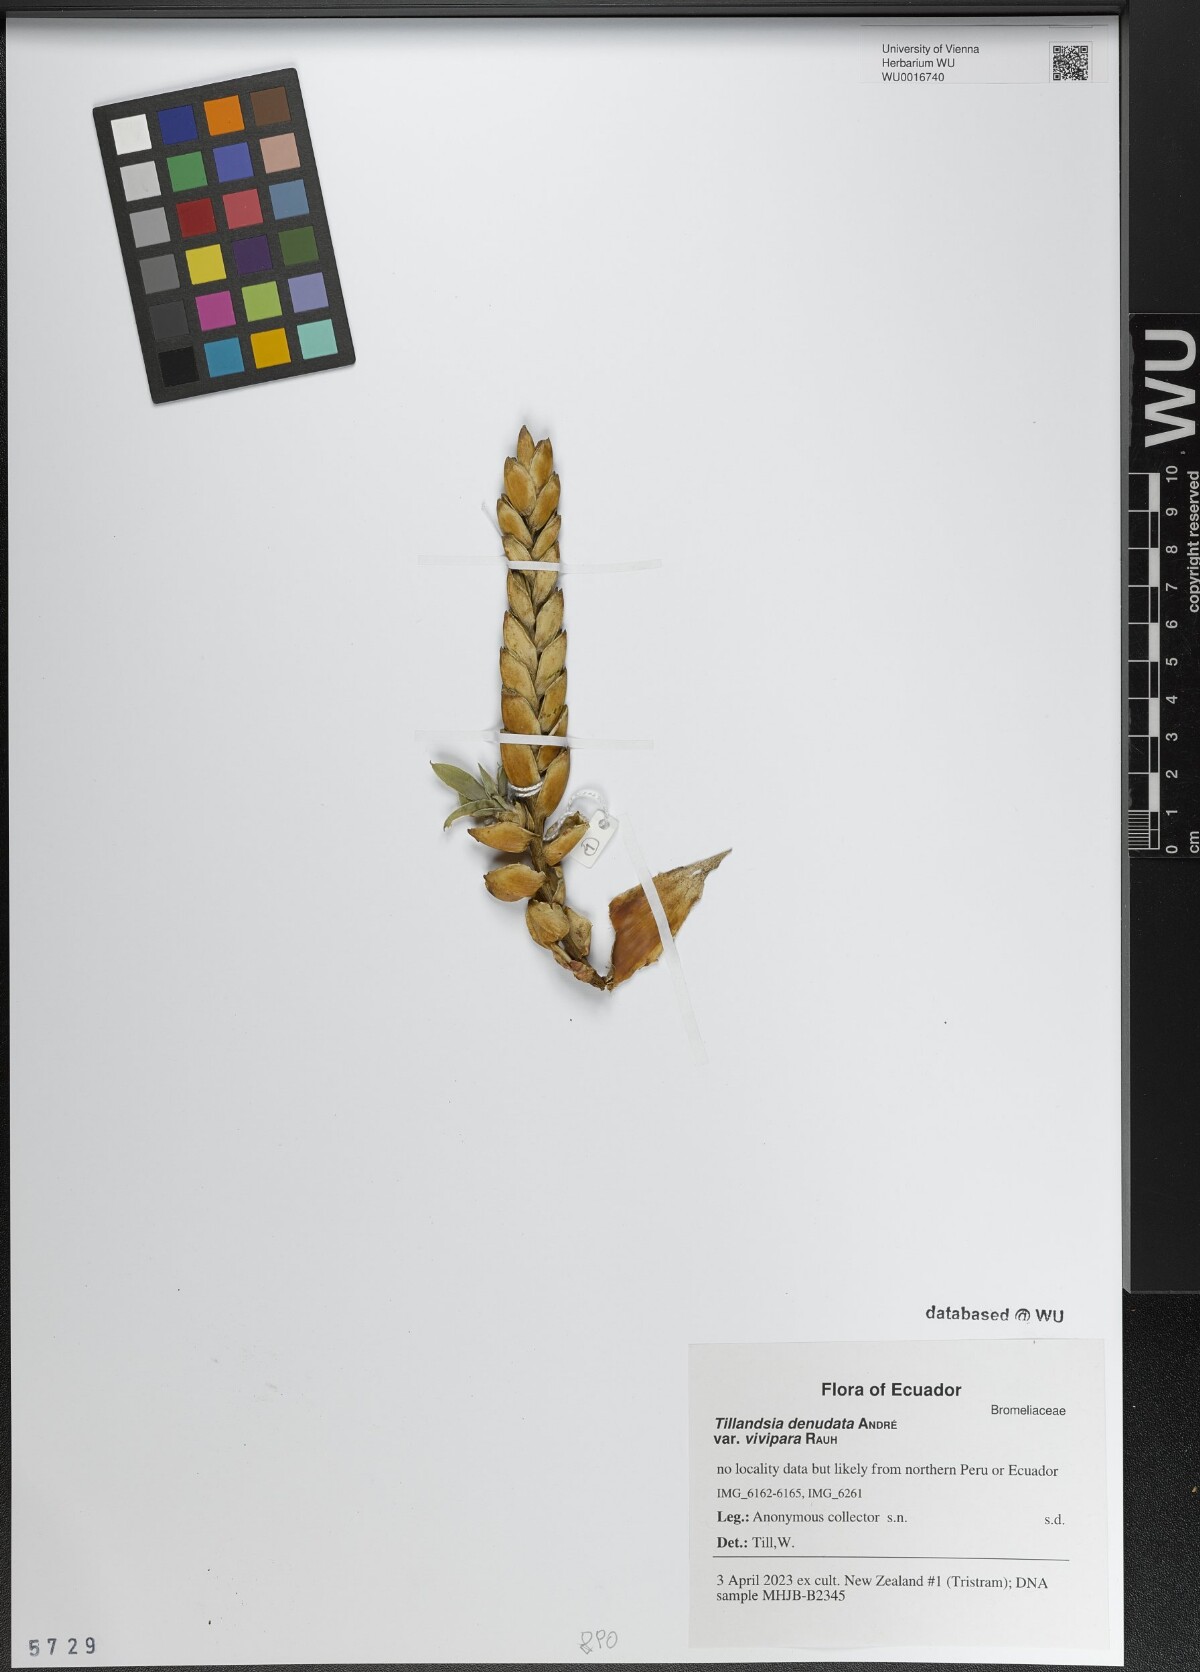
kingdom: Plantae
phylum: Tracheophyta
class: Liliopsida
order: Poales
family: Bromeliaceae
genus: Tillandsia
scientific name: Tillandsia denudata
